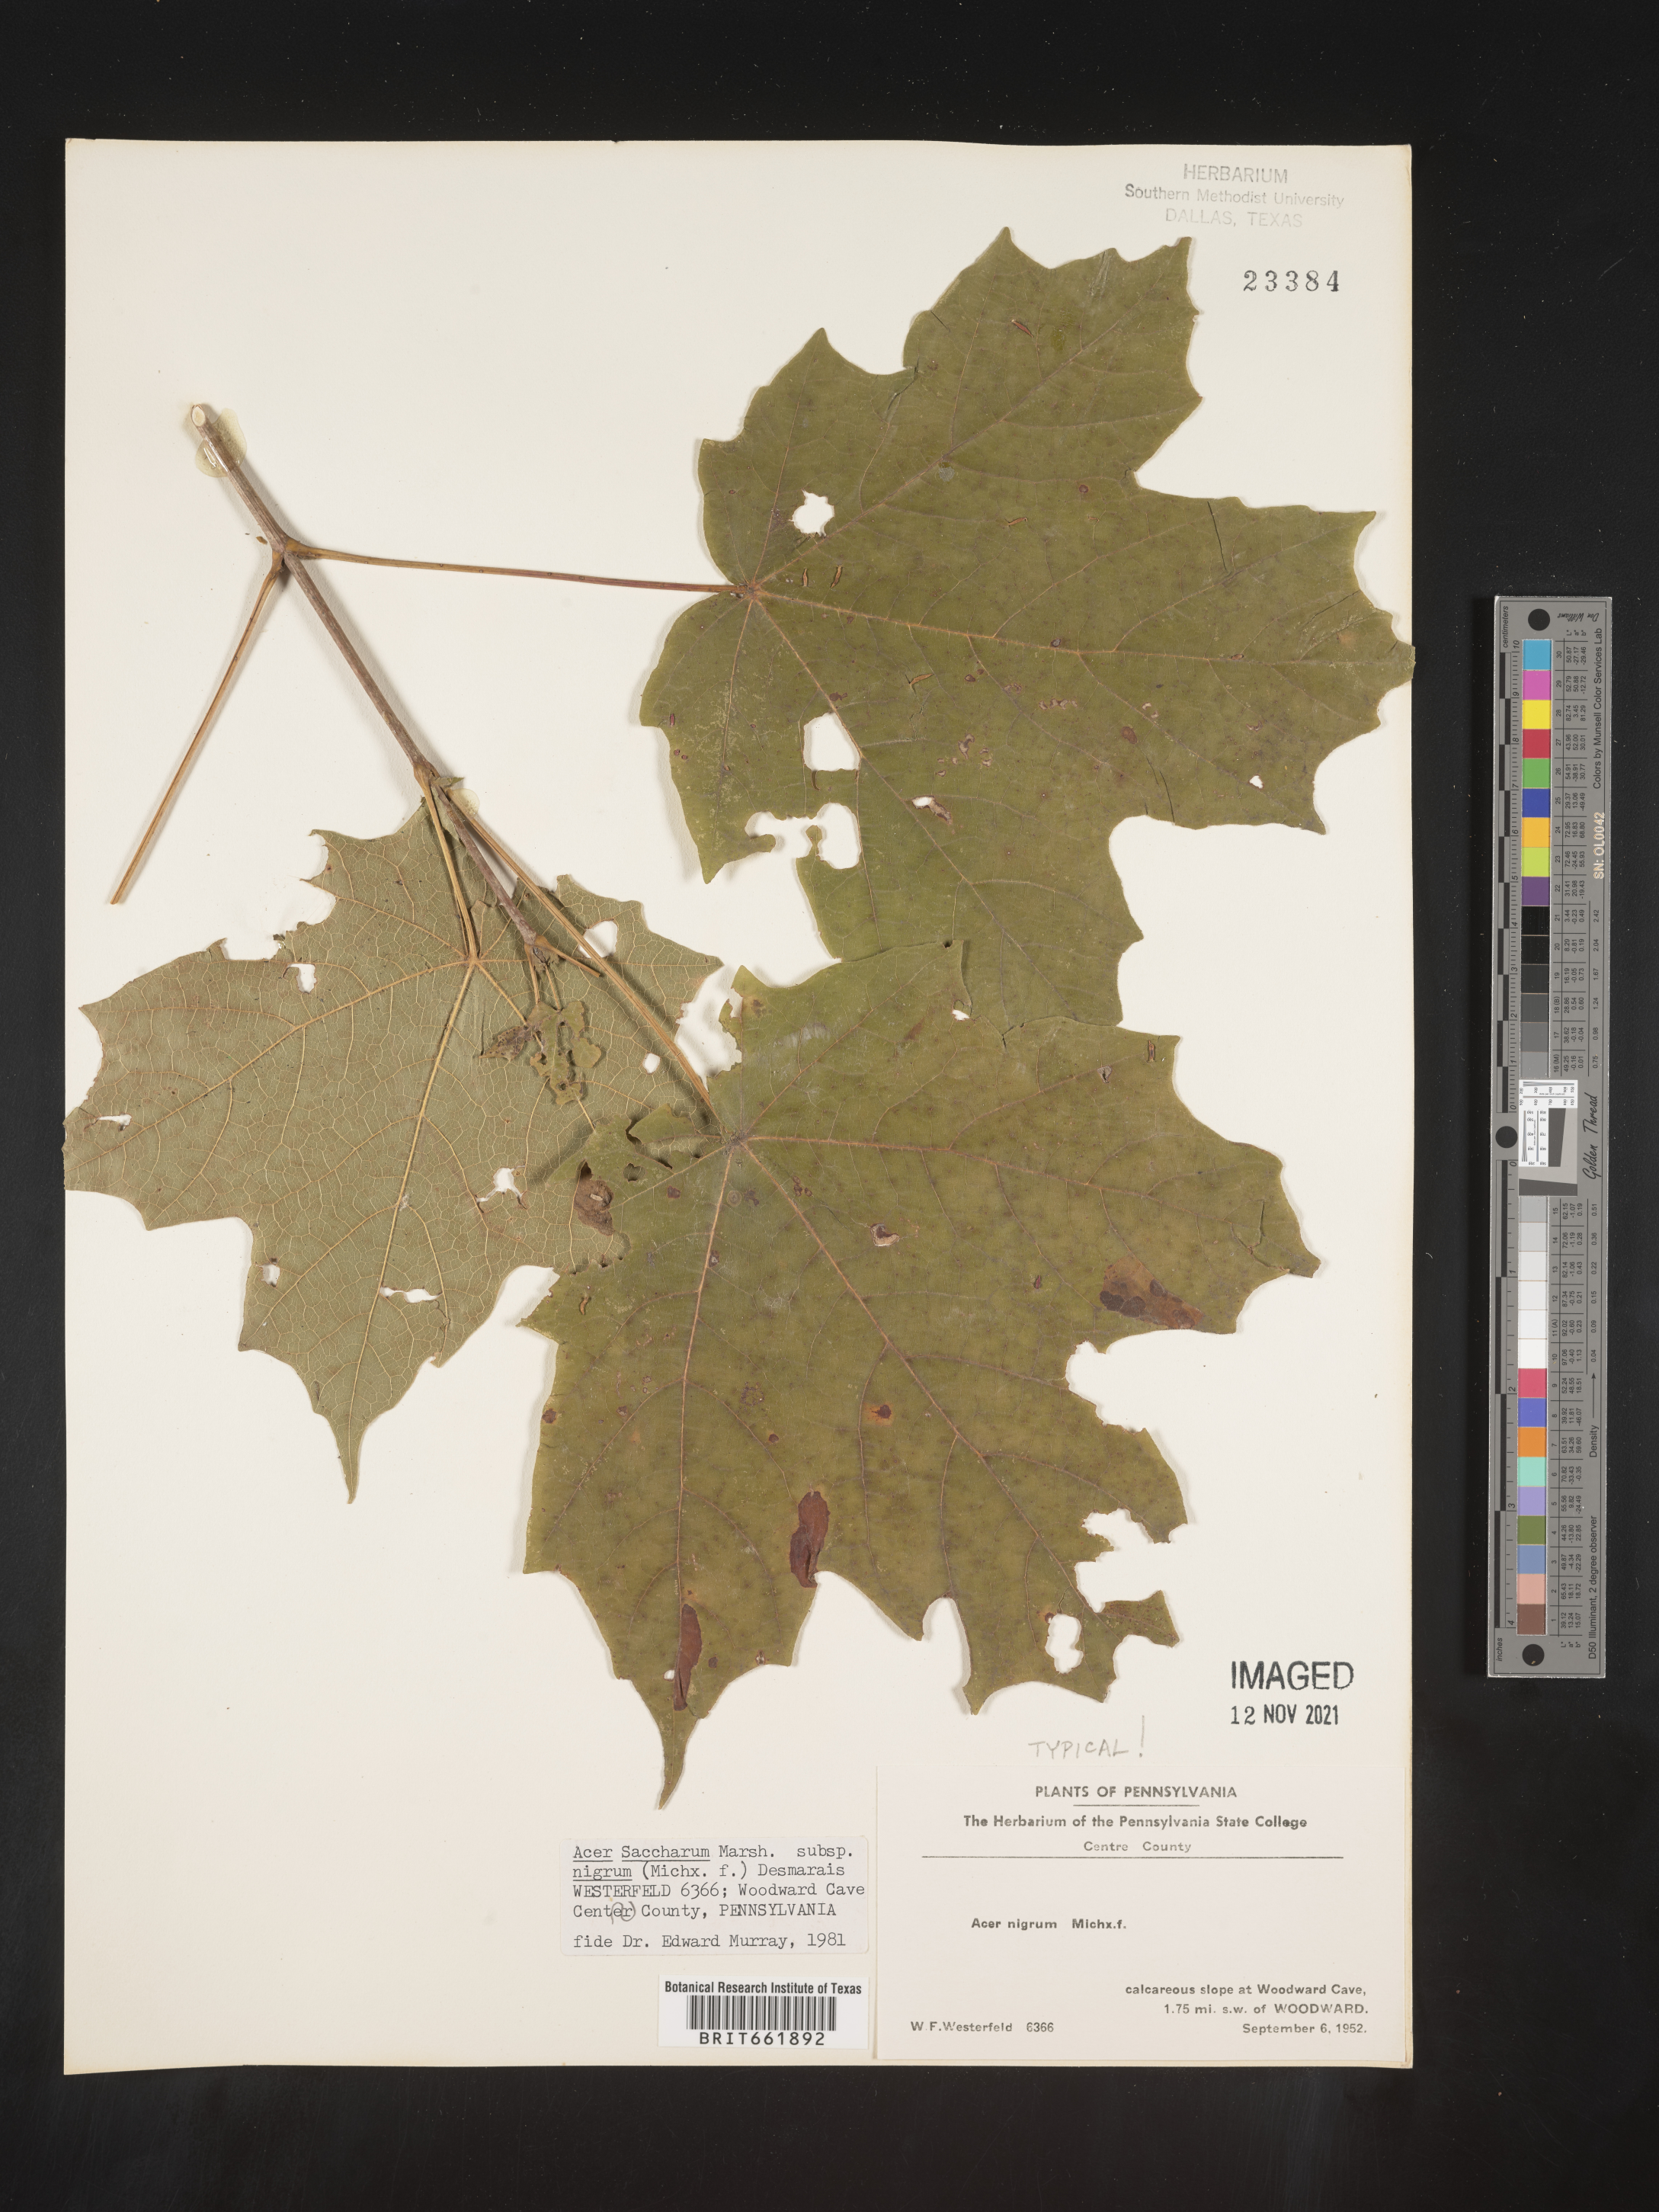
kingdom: Plantae
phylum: Tracheophyta
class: Magnoliopsida
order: Sapindales
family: Sapindaceae
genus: Acer
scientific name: Acer nigrum
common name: Black maple
